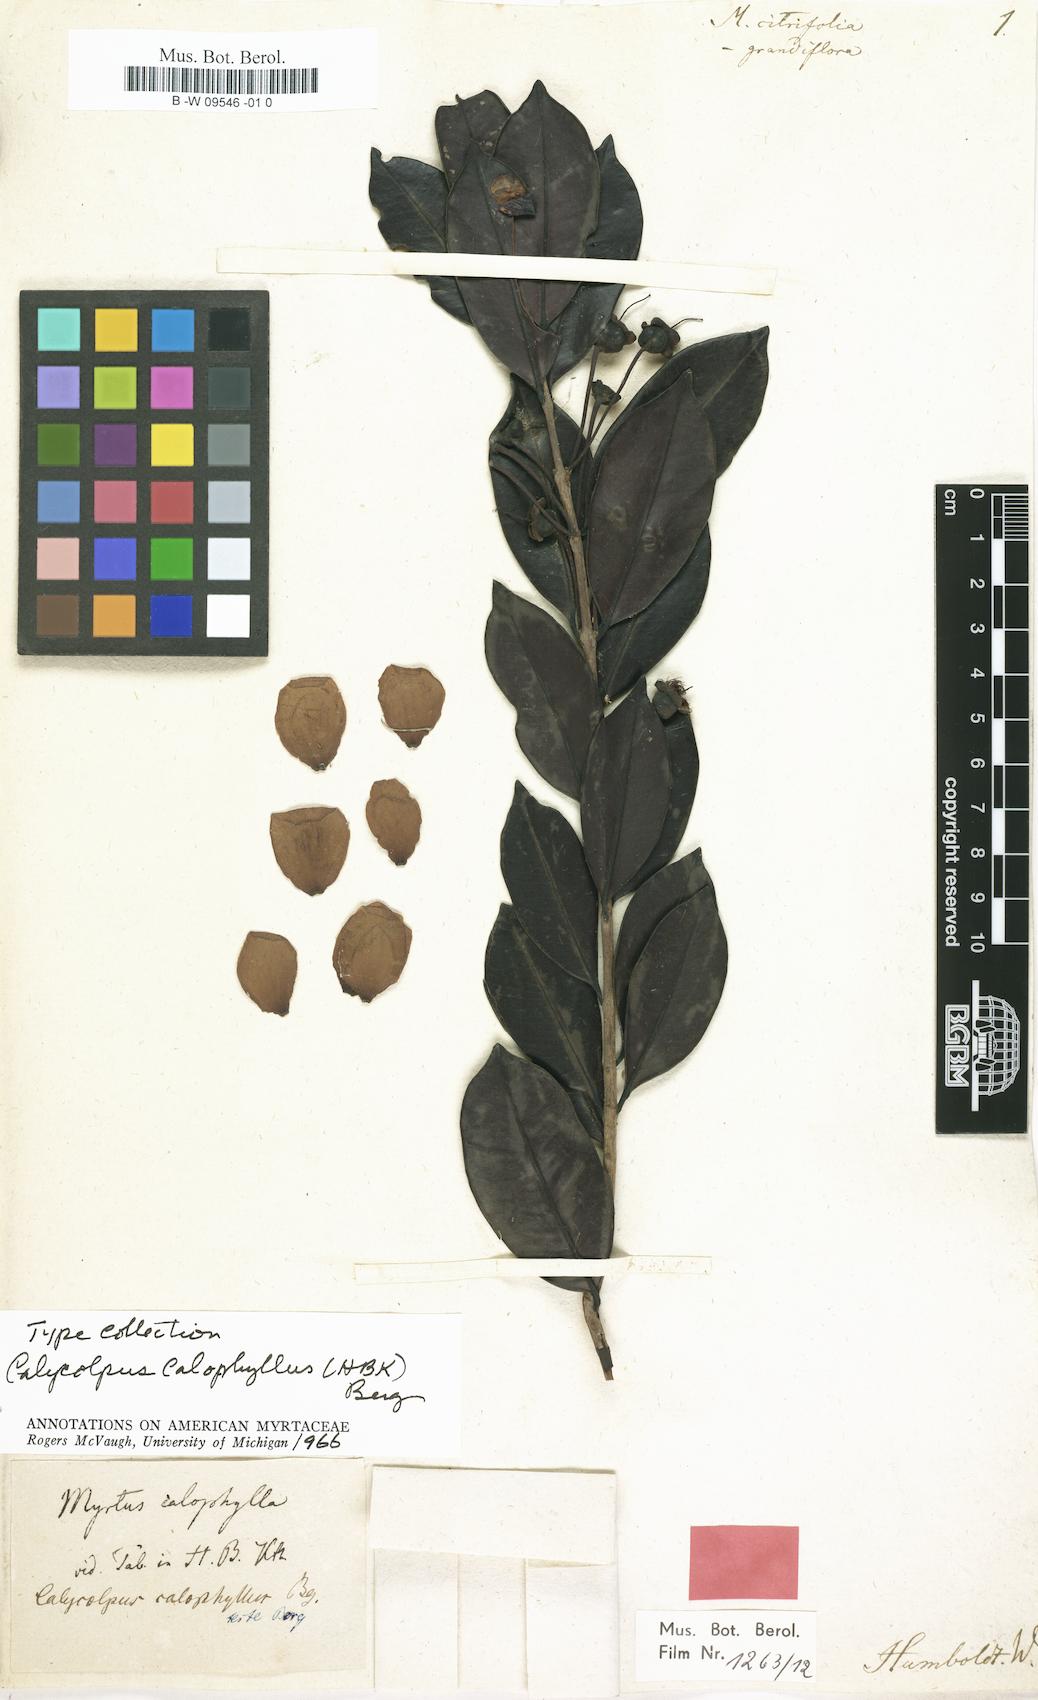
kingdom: Plantae
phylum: Tracheophyta
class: Magnoliopsida
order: Myrtales
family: Myrtaceae
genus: Calycolpus
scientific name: Calycolpus calophyllus
